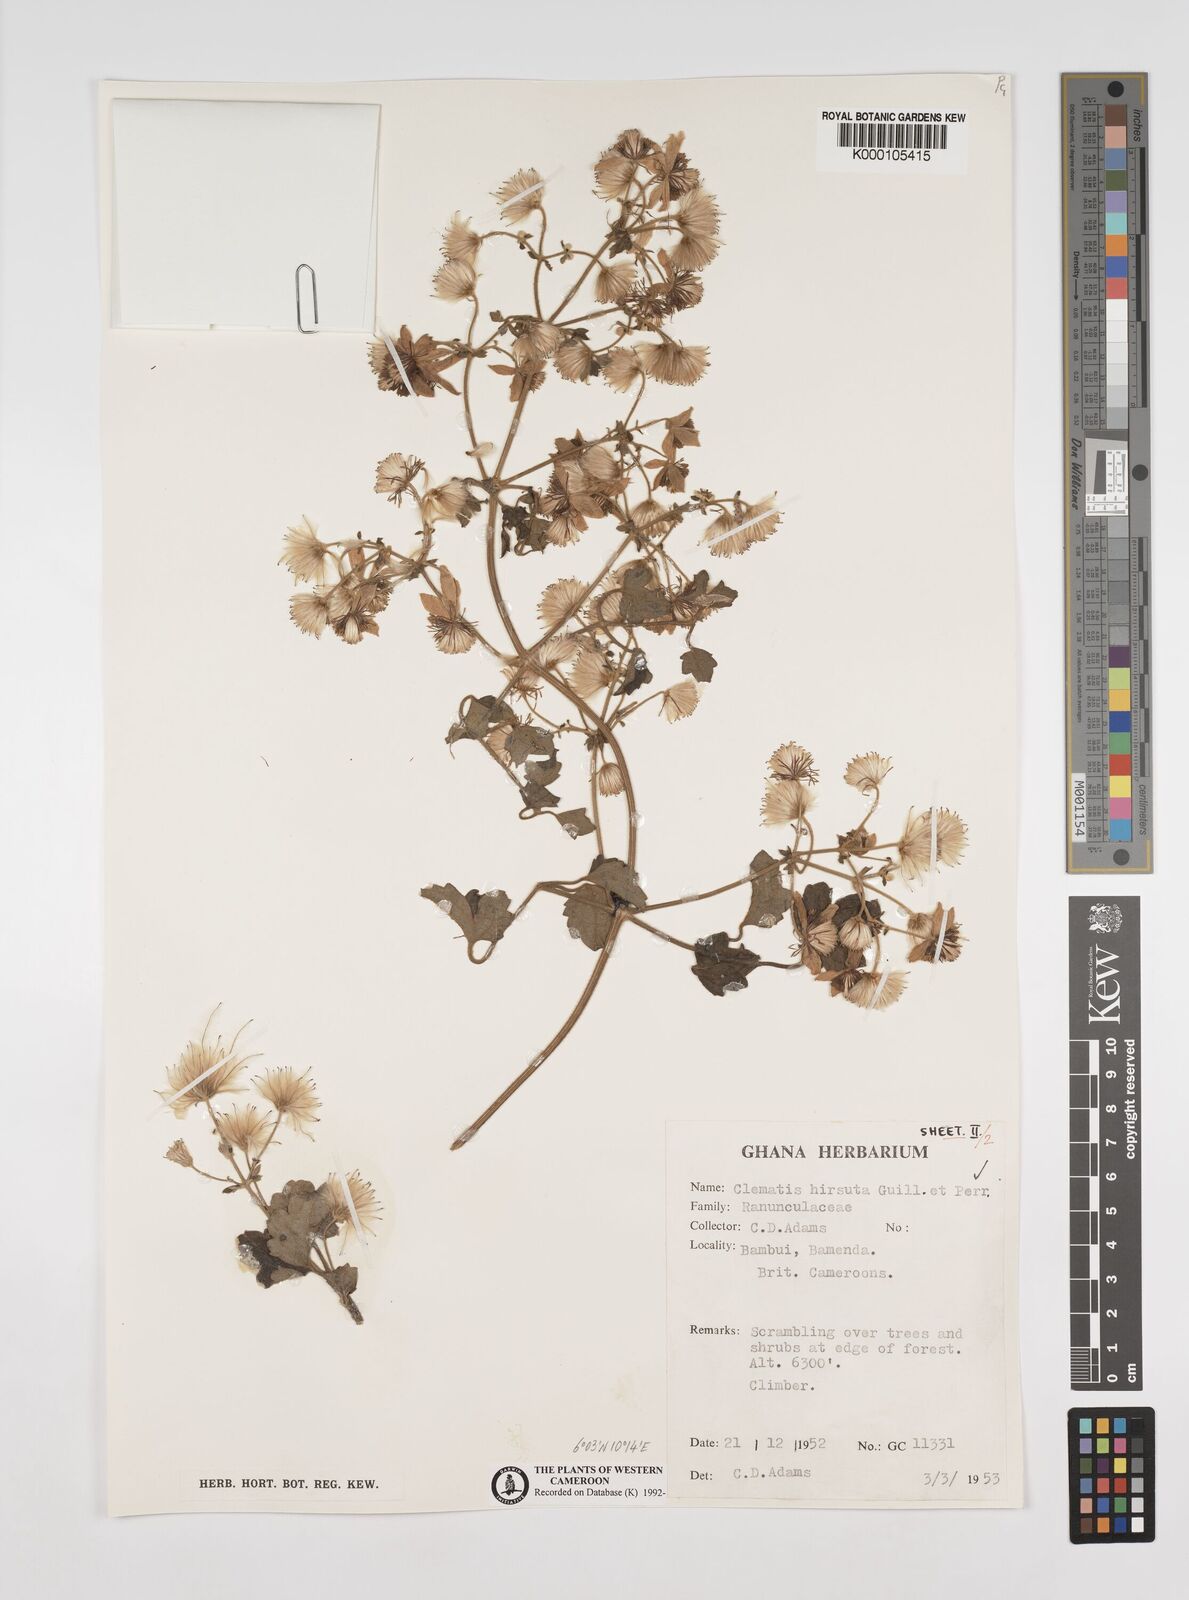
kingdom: Plantae
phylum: Tracheophyta
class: Magnoliopsida
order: Ranunculales
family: Ranunculaceae
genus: Clematis
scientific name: Clematis hirsuta
